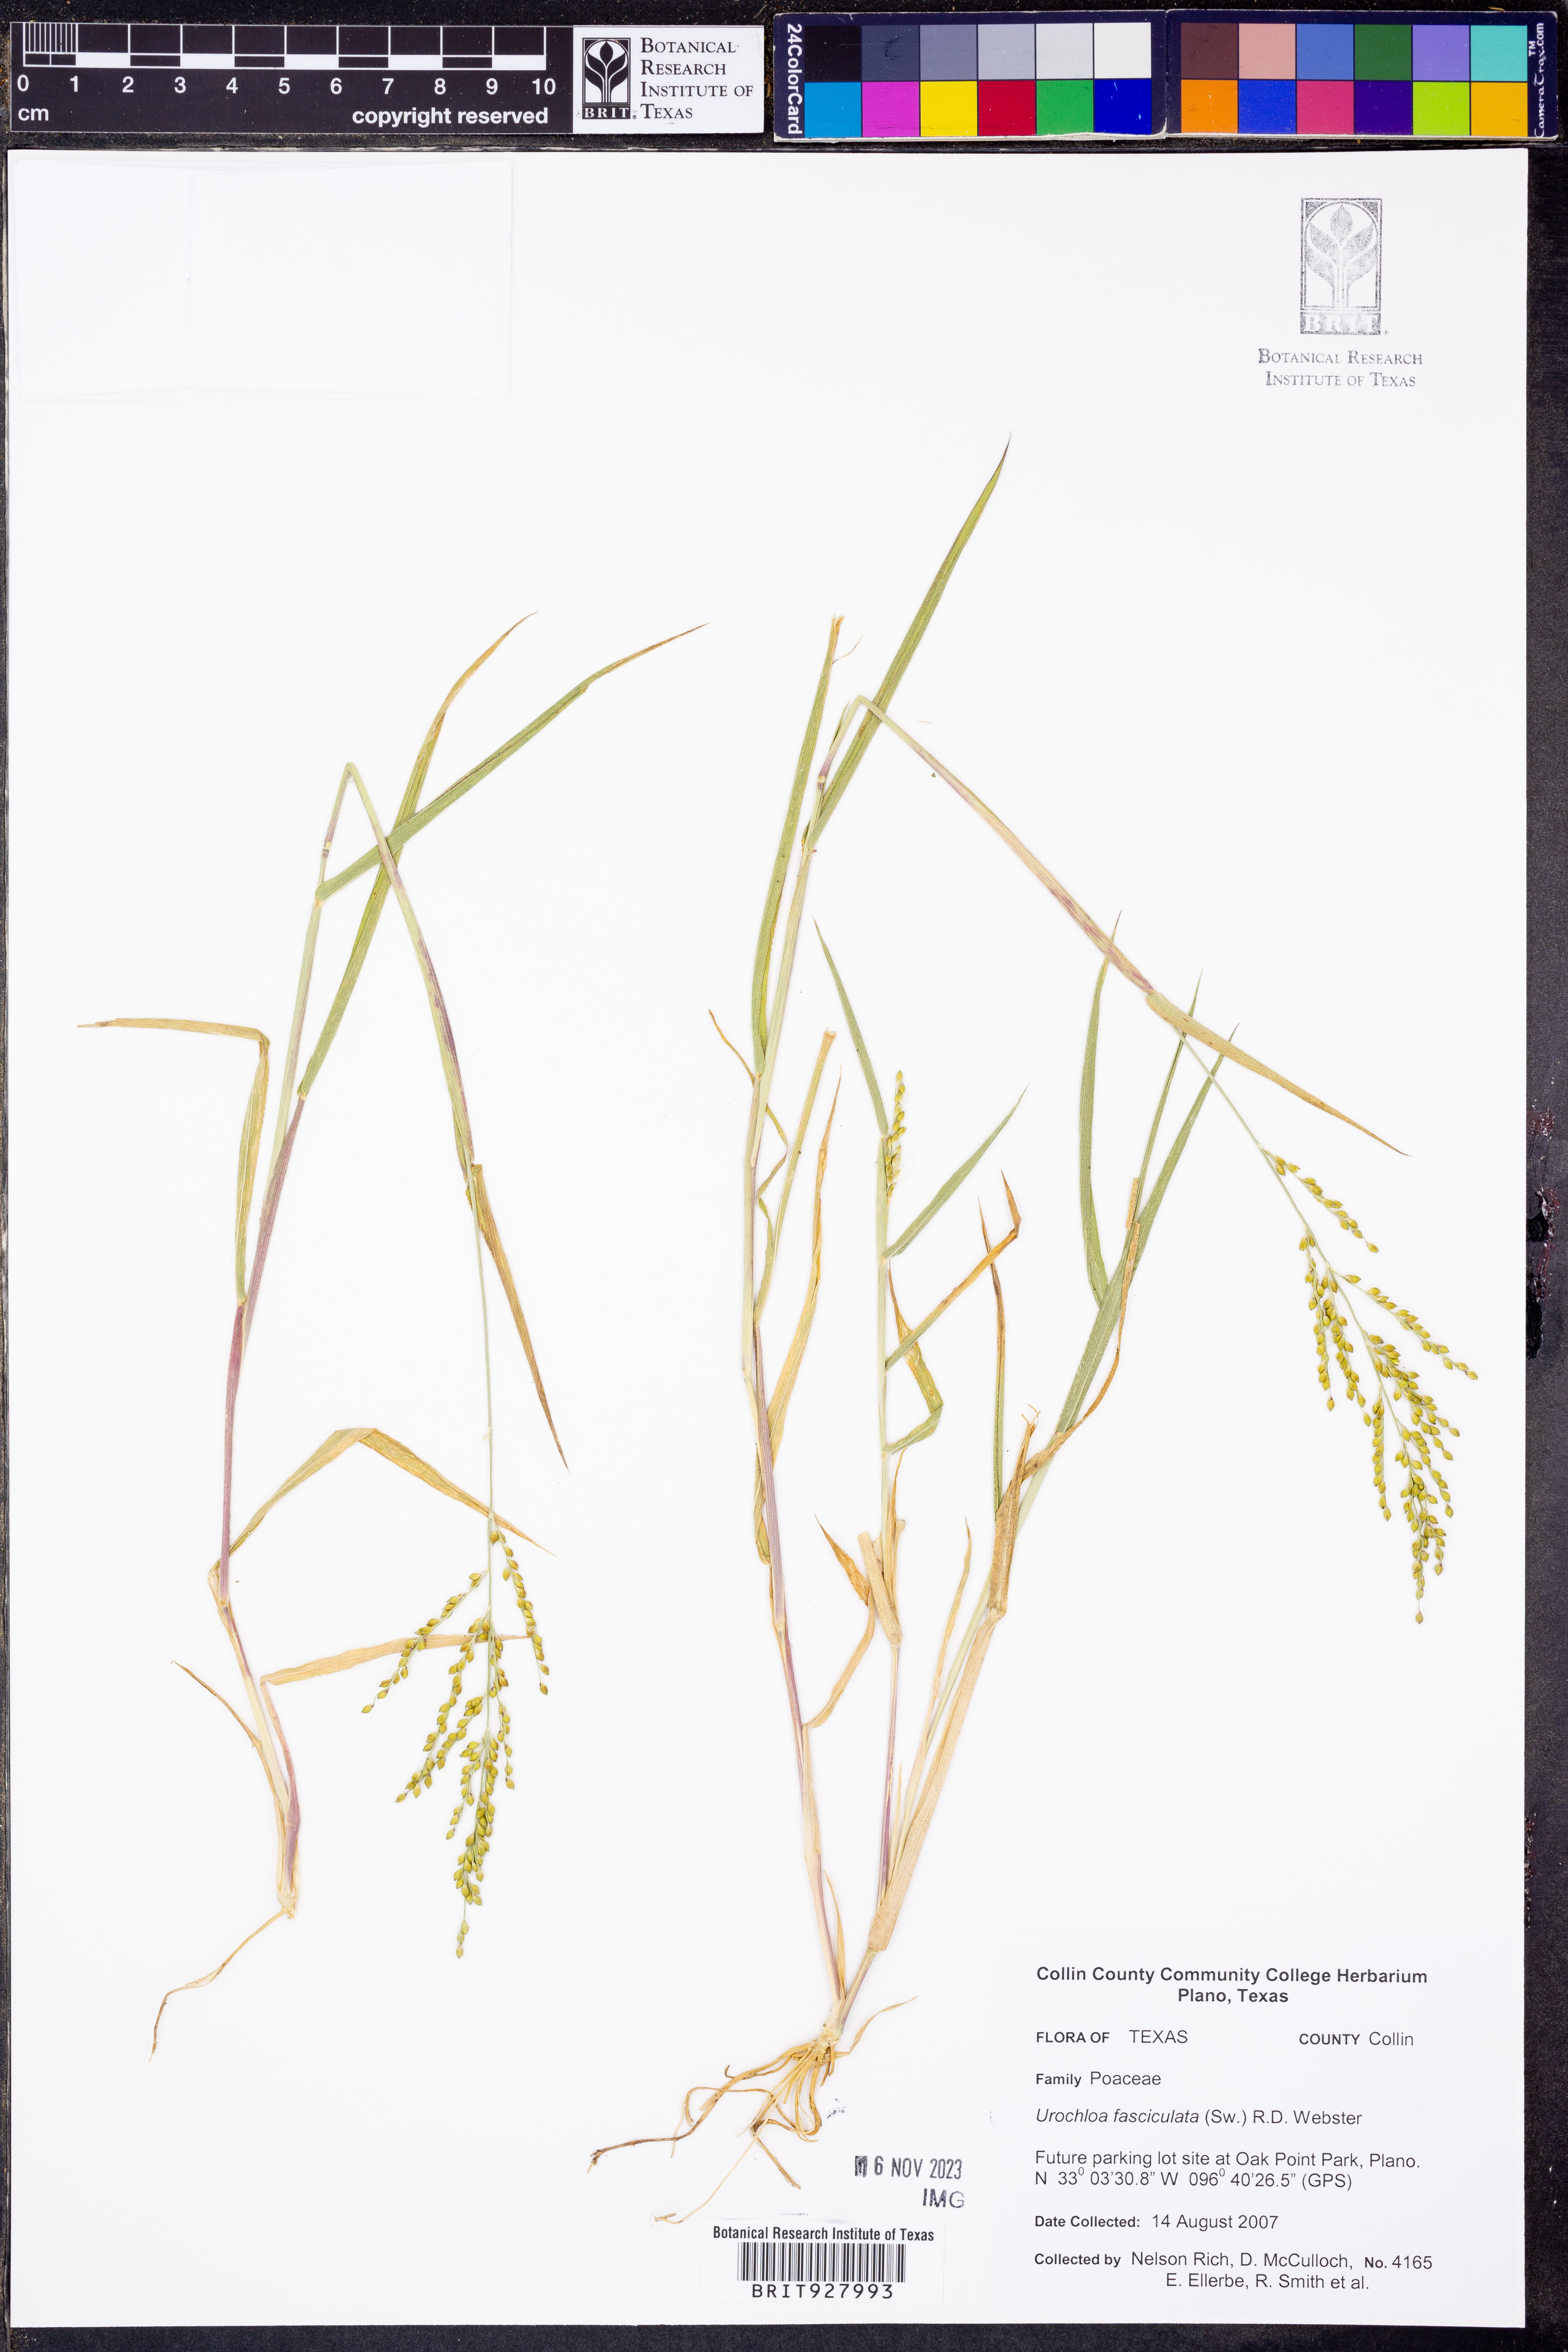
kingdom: Plantae
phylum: Tracheophyta
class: Liliopsida
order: Poales
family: Poaceae
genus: Urochloa
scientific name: Urochloa fusca
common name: Browntop signal grass
